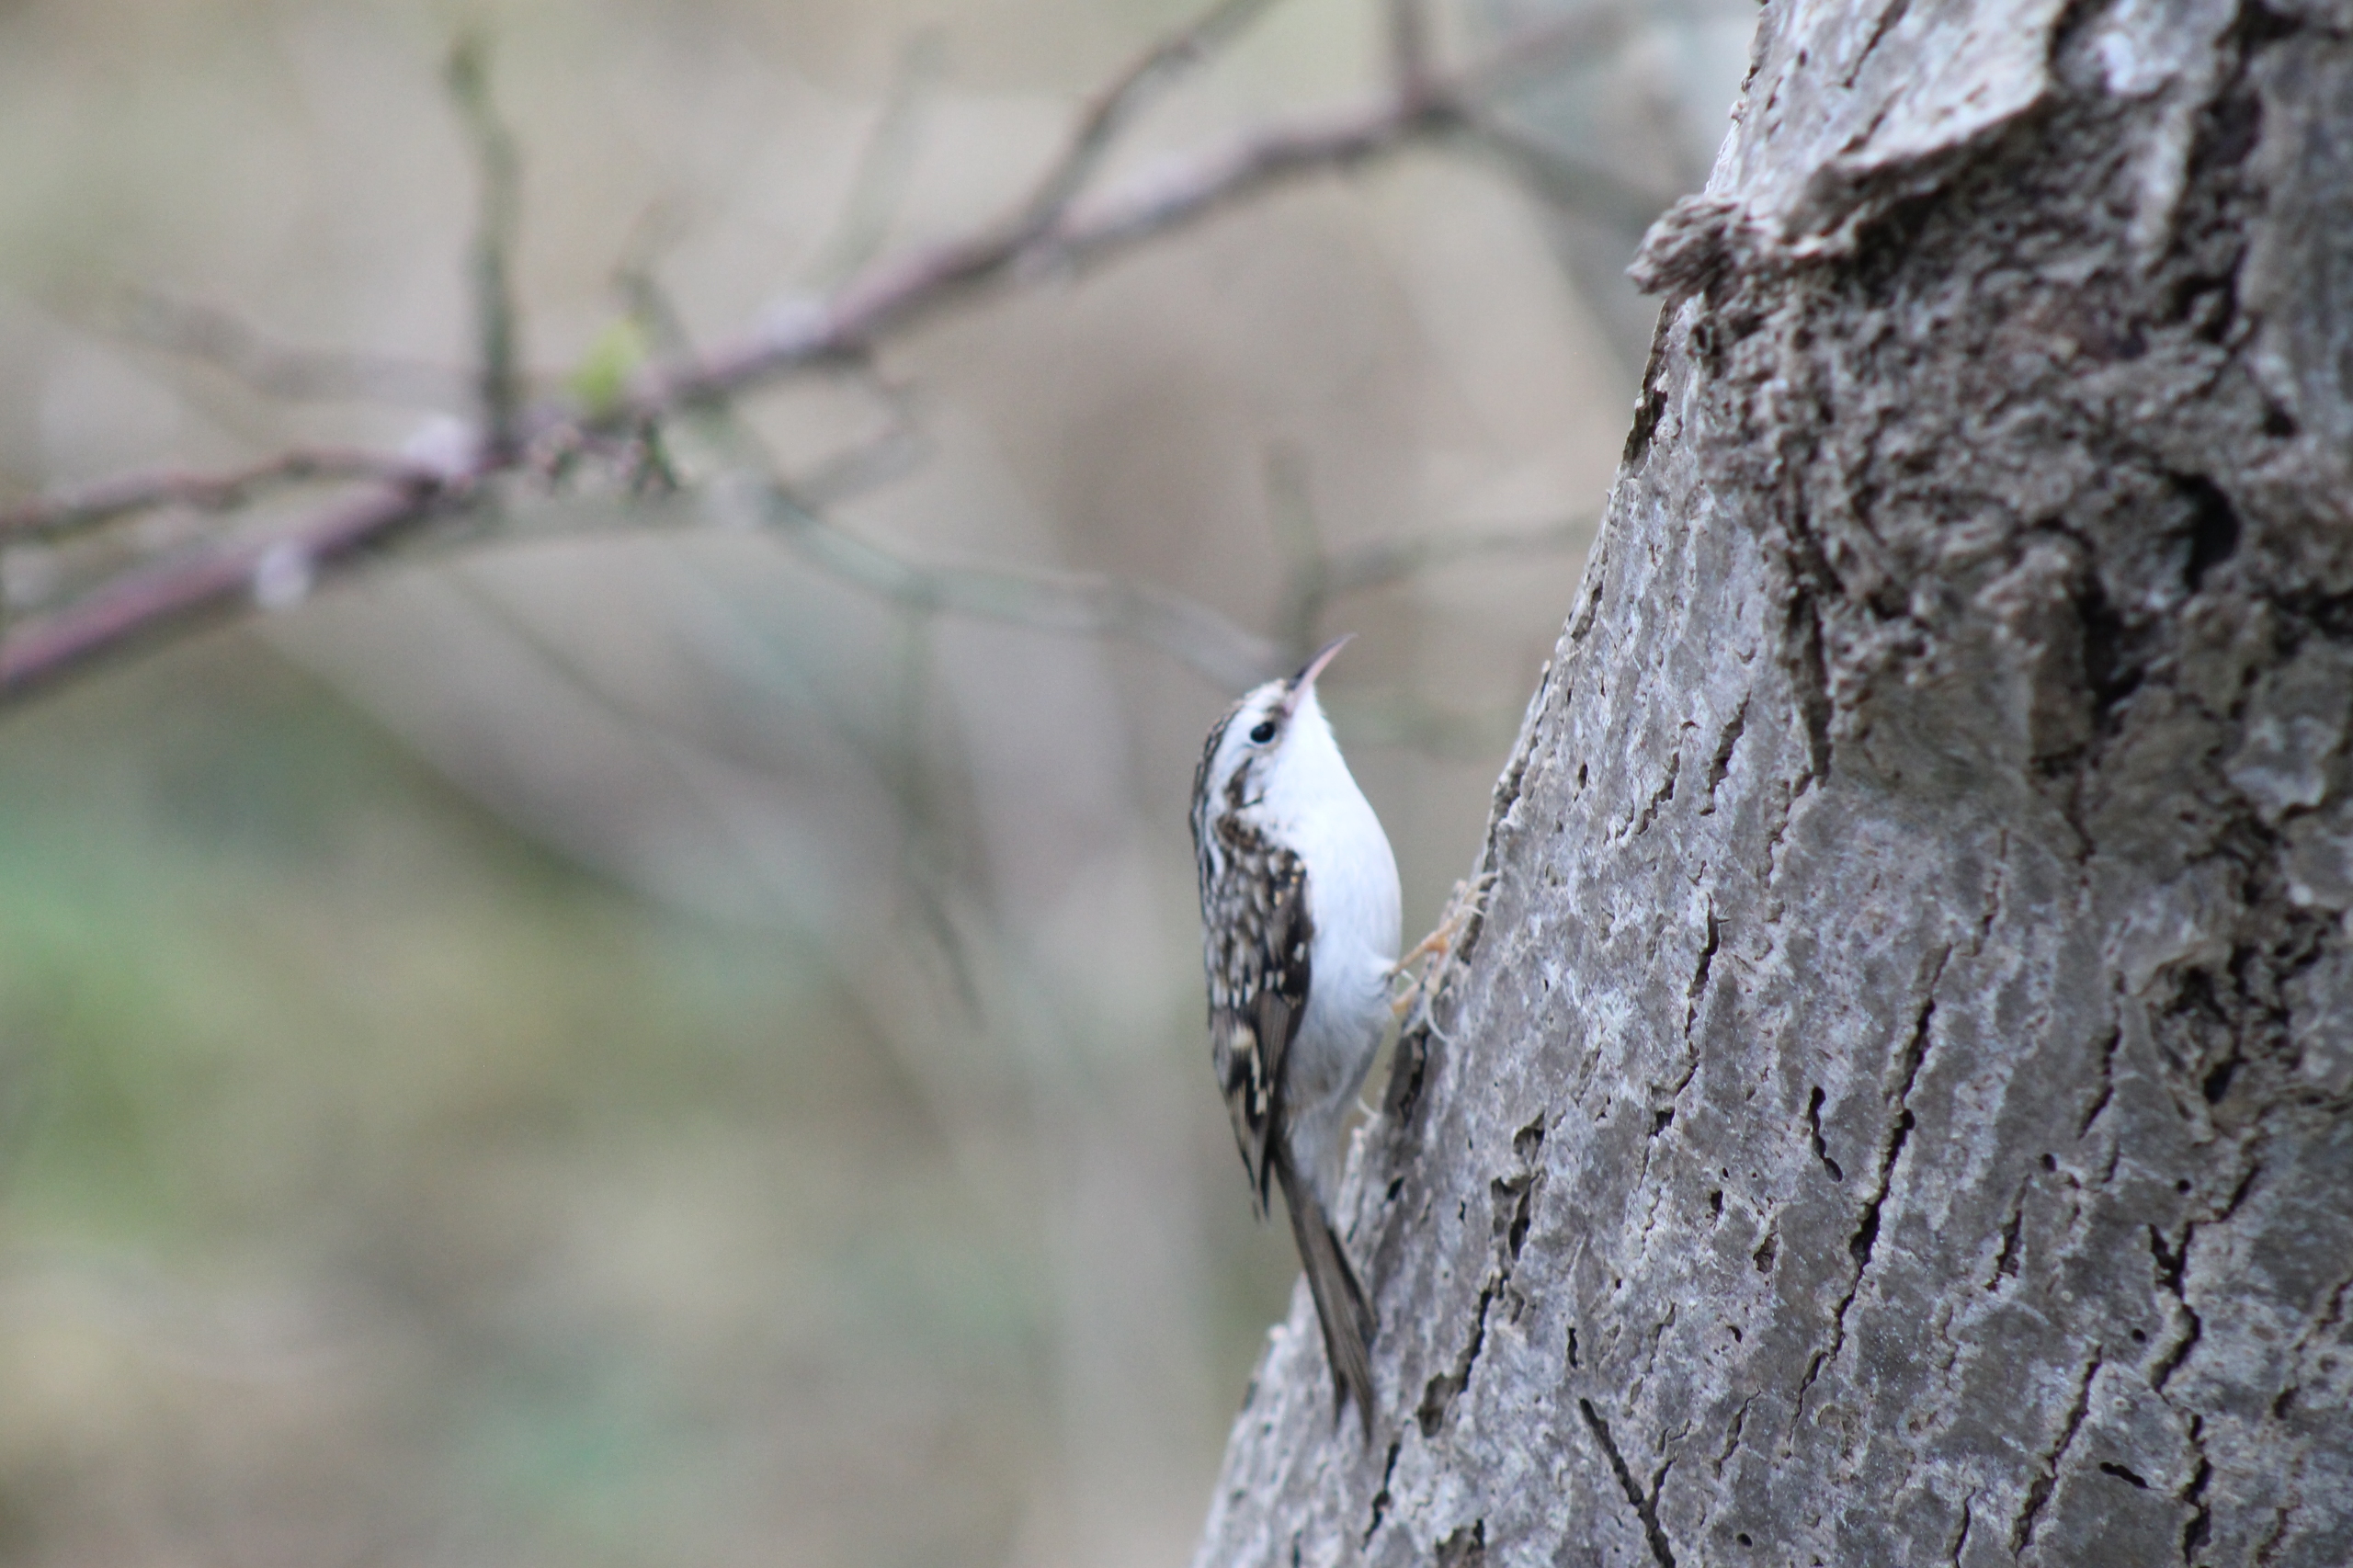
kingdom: Animalia
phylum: Chordata
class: Aves
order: Passeriformes
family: Certhiidae
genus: Certhia
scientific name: Certhia familiaris
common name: Træløber
